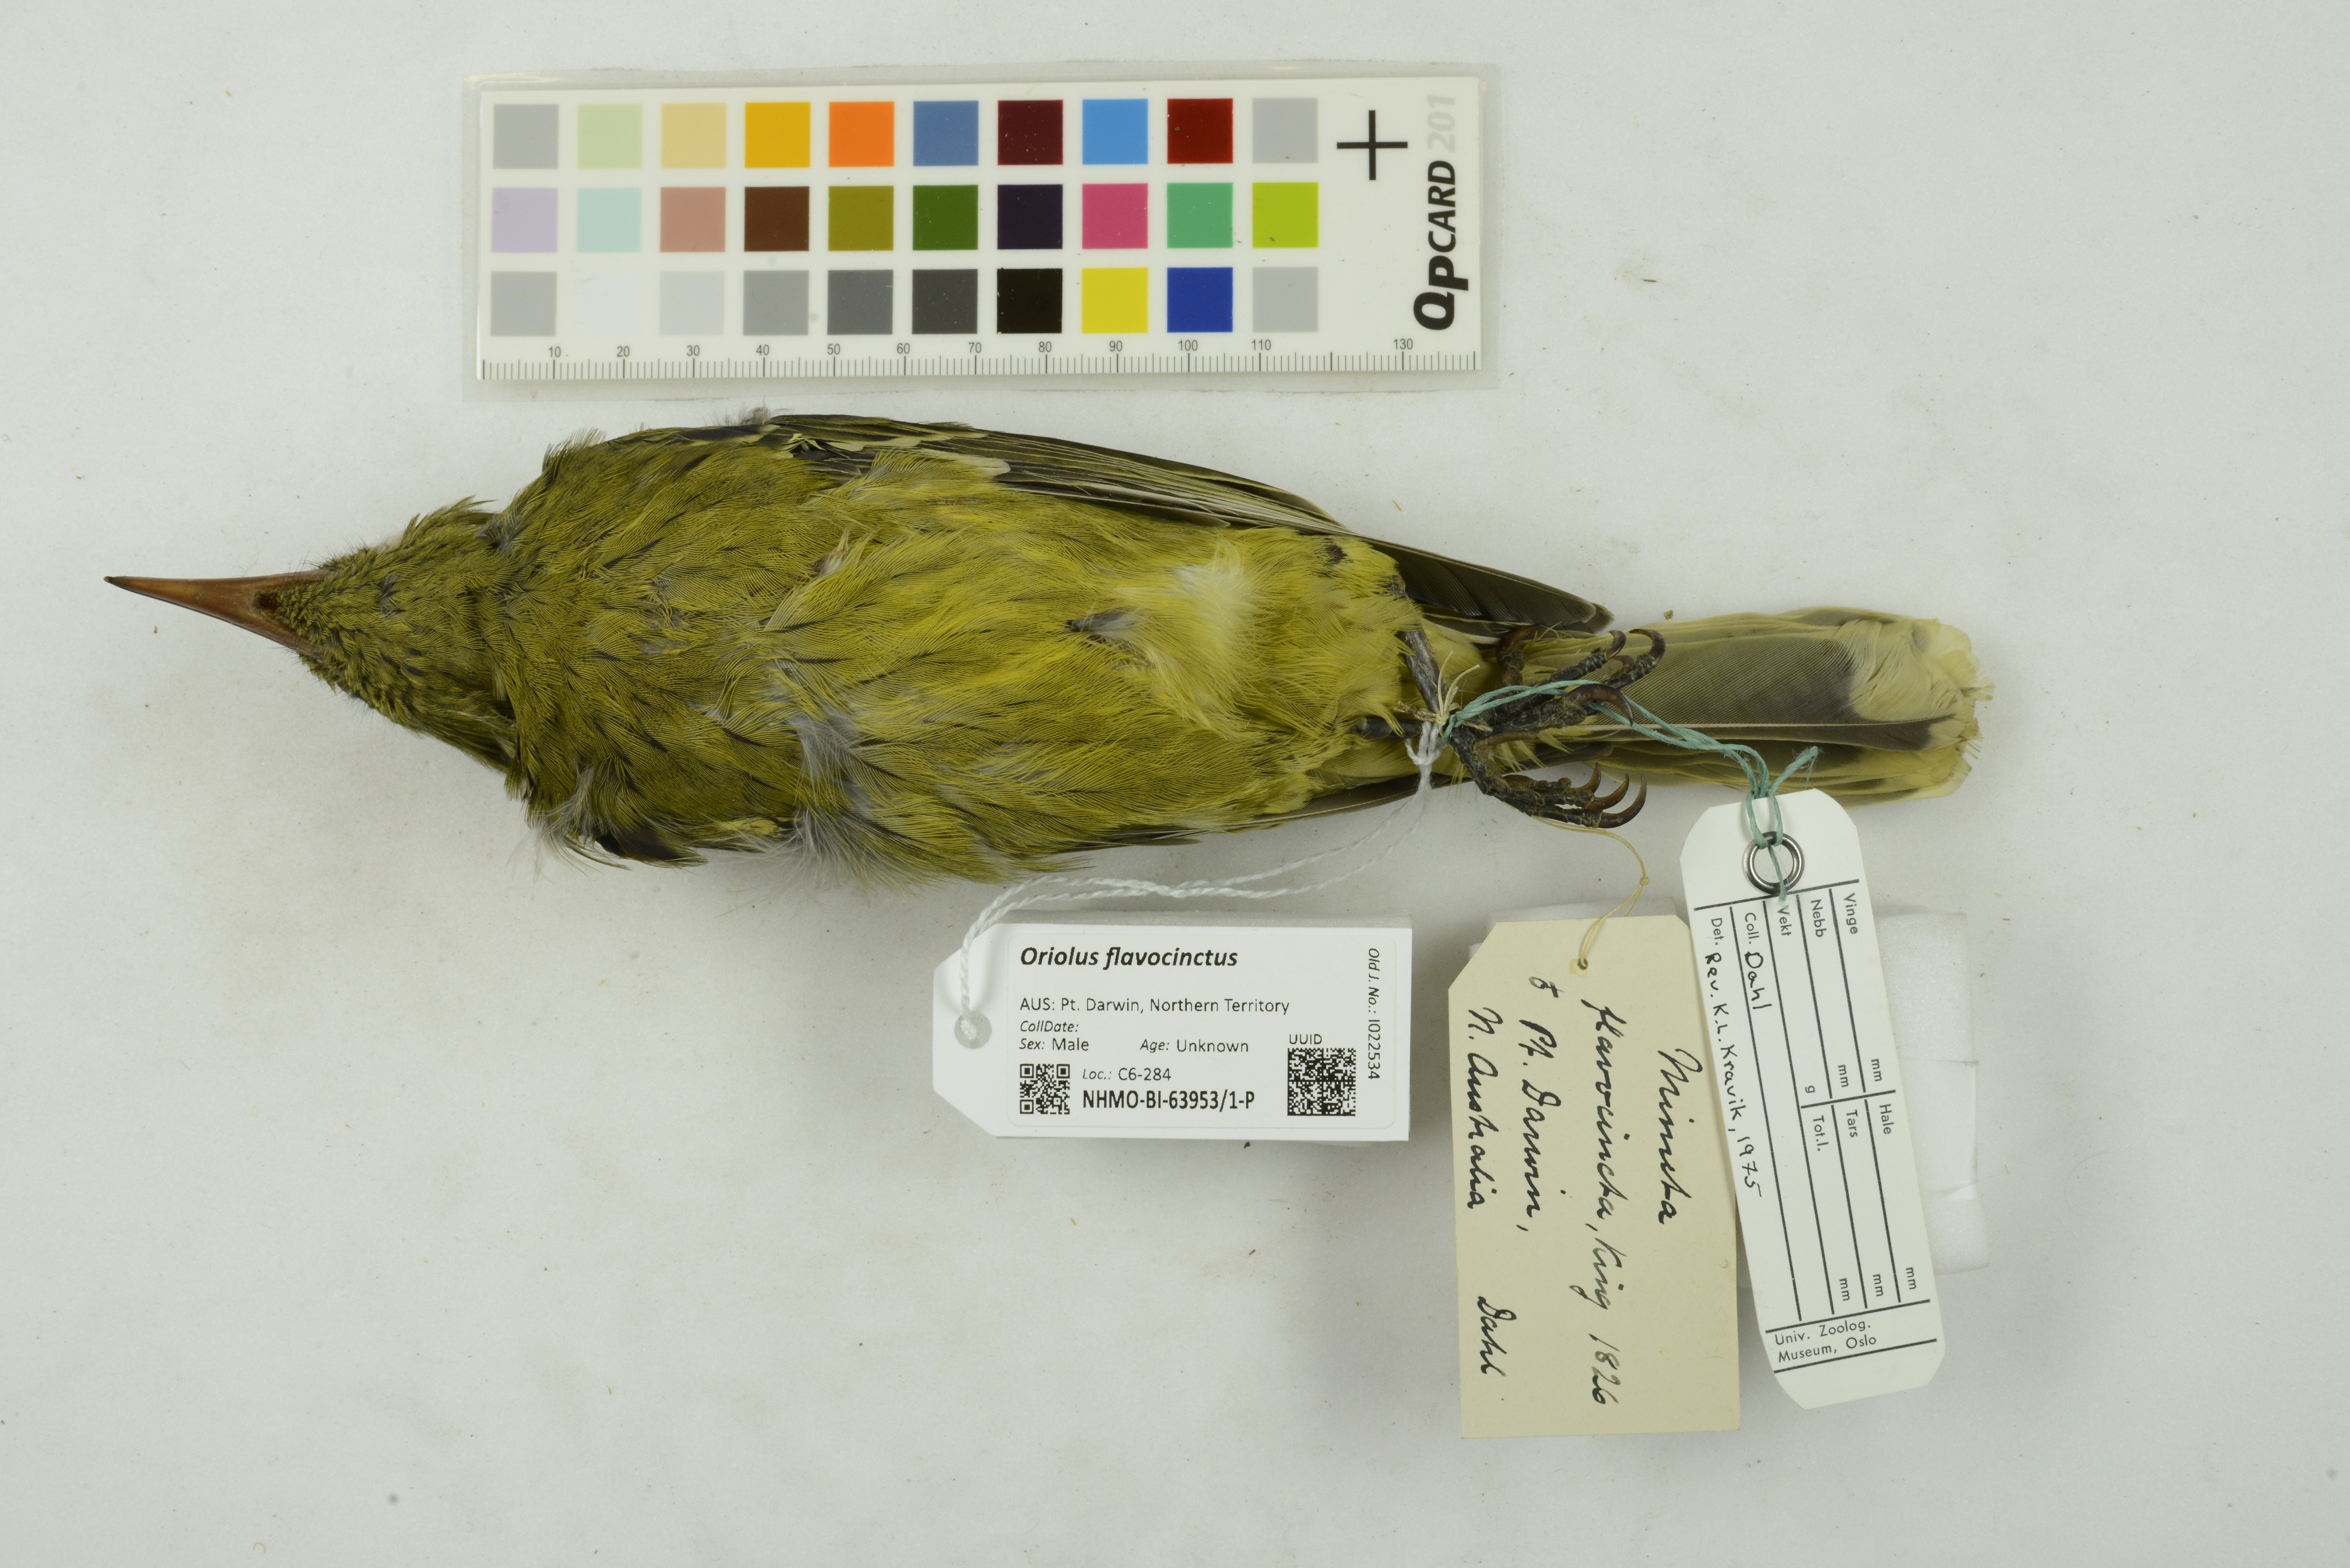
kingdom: Animalia
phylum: Chordata
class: Aves
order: Passeriformes
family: Oriolidae
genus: Oriolus
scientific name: Oriolus flavocinctus
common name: Green oriole
